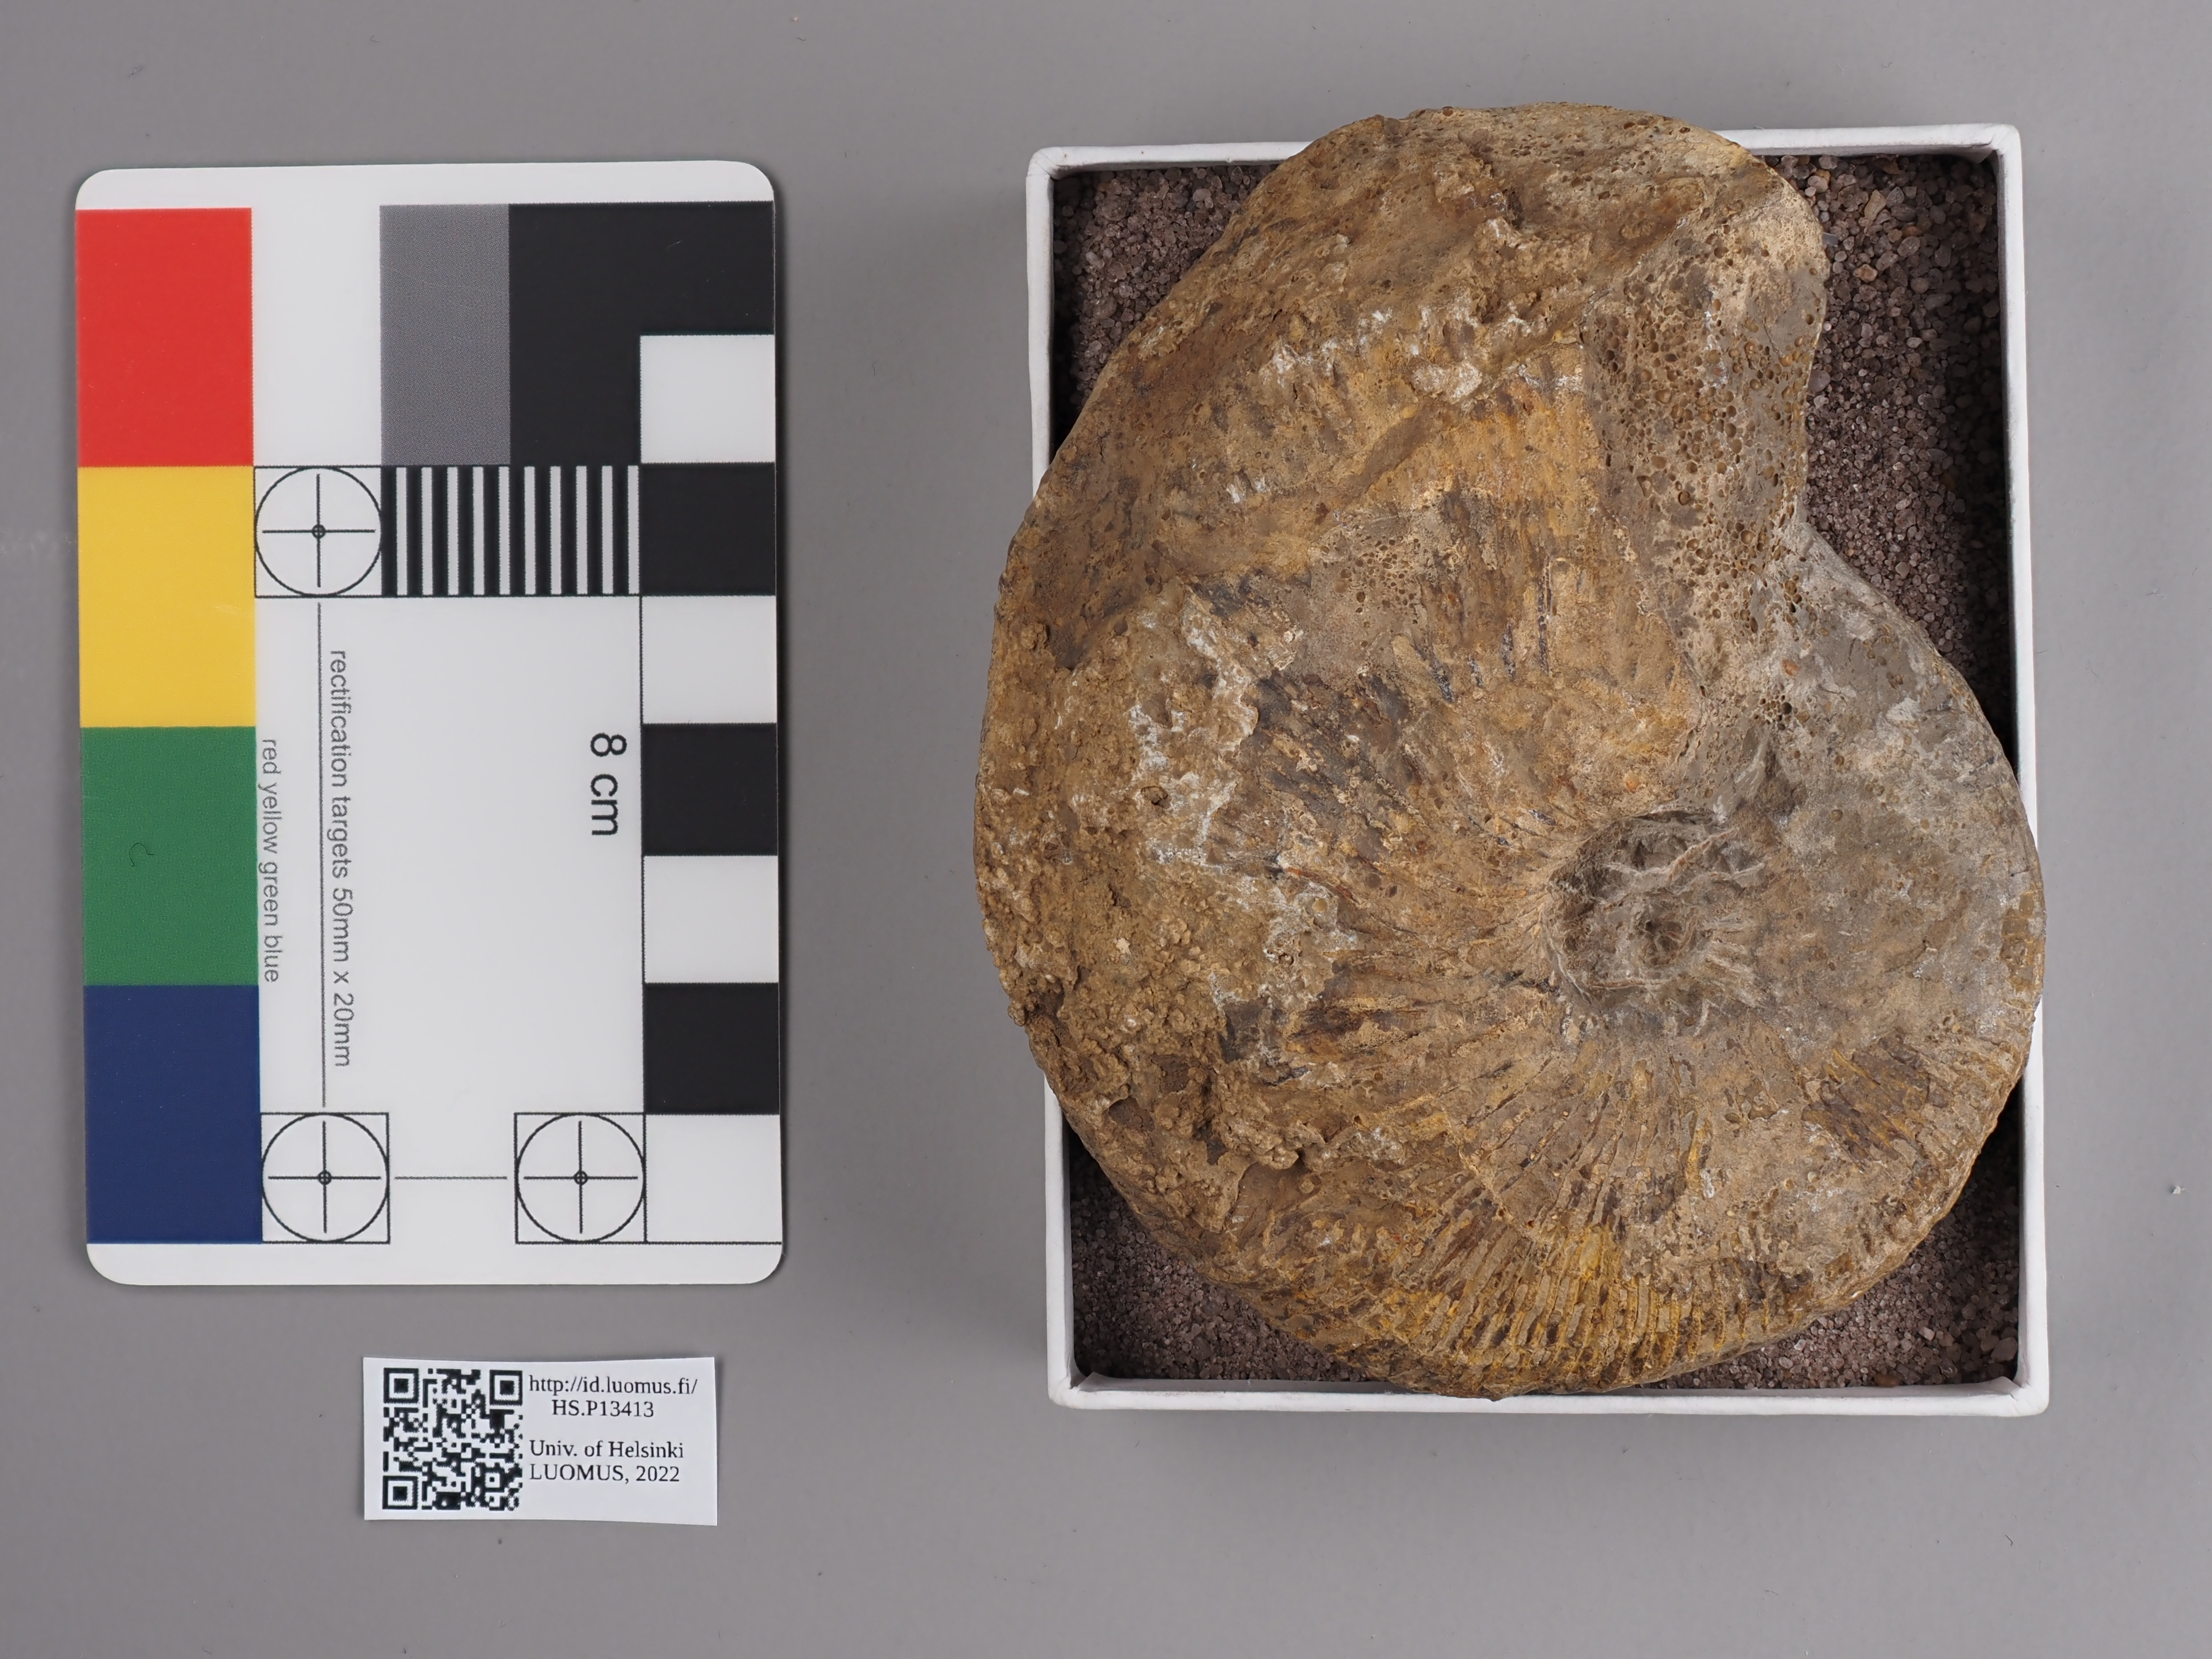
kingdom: Animalia
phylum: Mollusca
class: Cephalopoda
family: Macrocephalitidae
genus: Macrocephalites
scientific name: Macrocephalites
